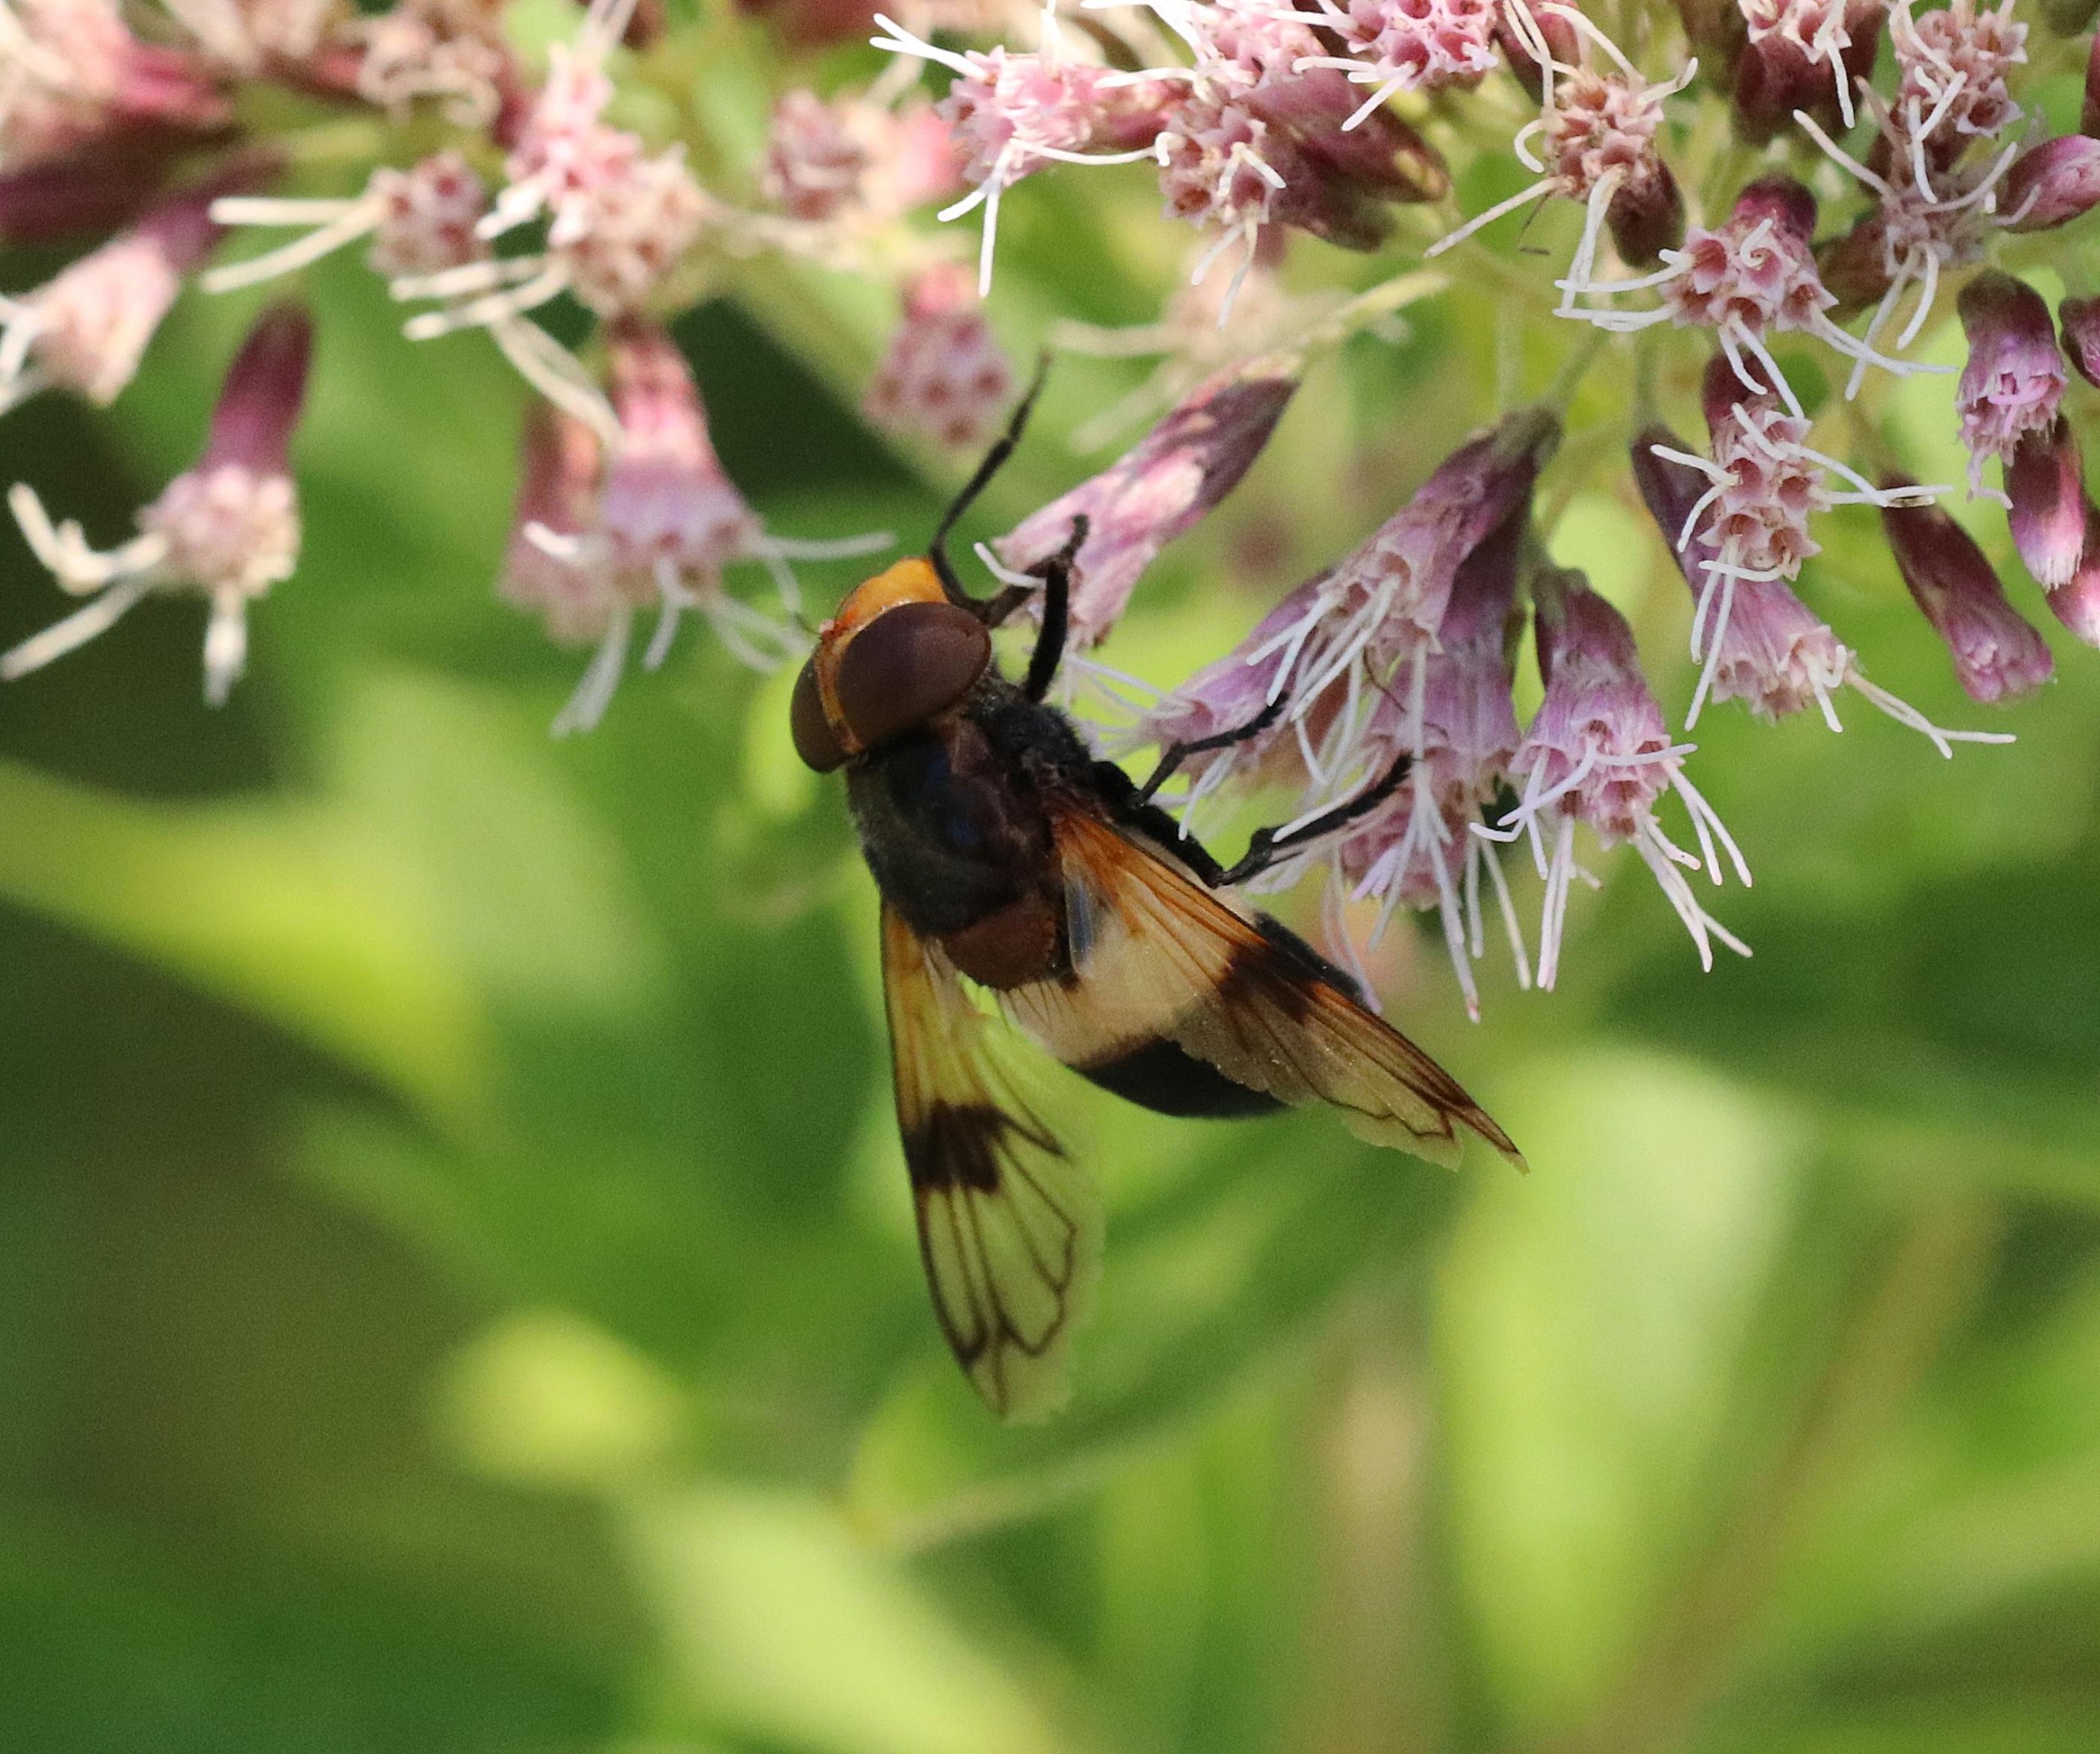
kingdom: Animalia
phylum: Arthropoda
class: Insecta
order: Diptera
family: Syrphidae
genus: Volucella
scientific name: Volucella pellucens
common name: Hvidbåndet humlesvirreflue
